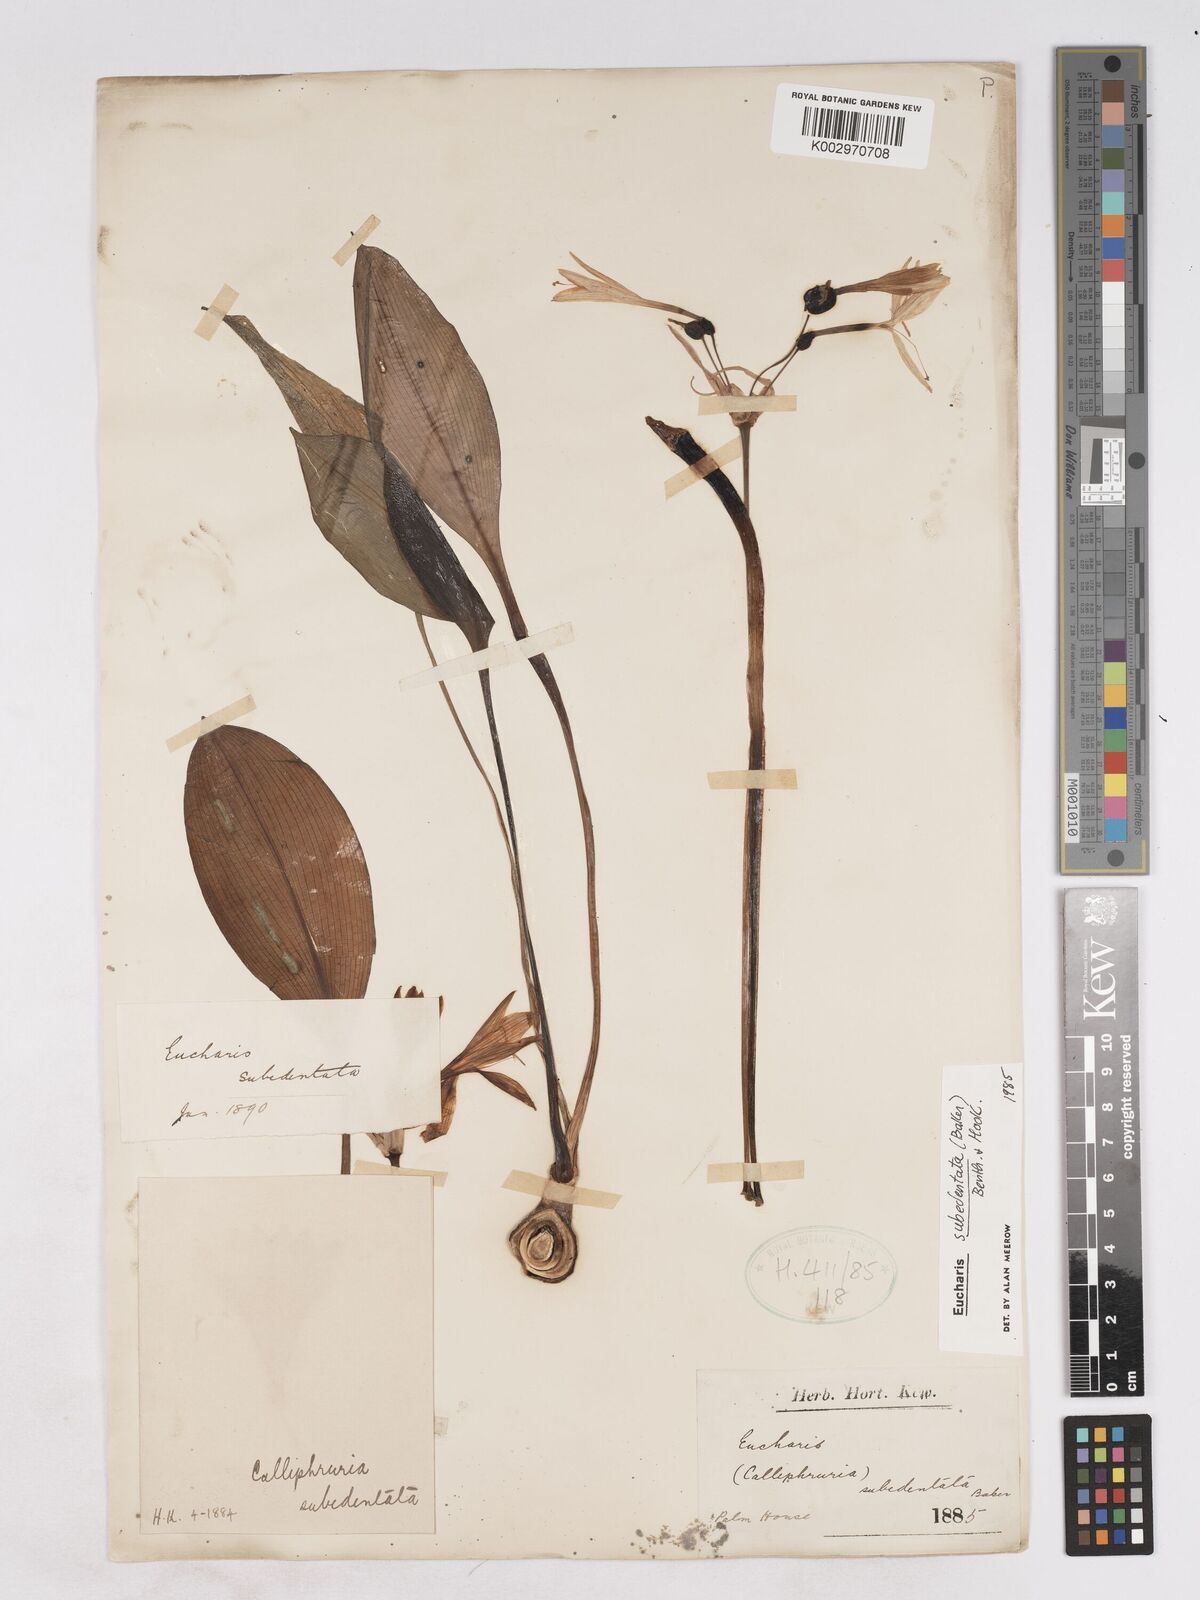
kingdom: Plantae
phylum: Tracheophyta
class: Liliopsida
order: Asparagales
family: Amaryllidaceae
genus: Urceolina
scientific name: Urceolina subedentata
